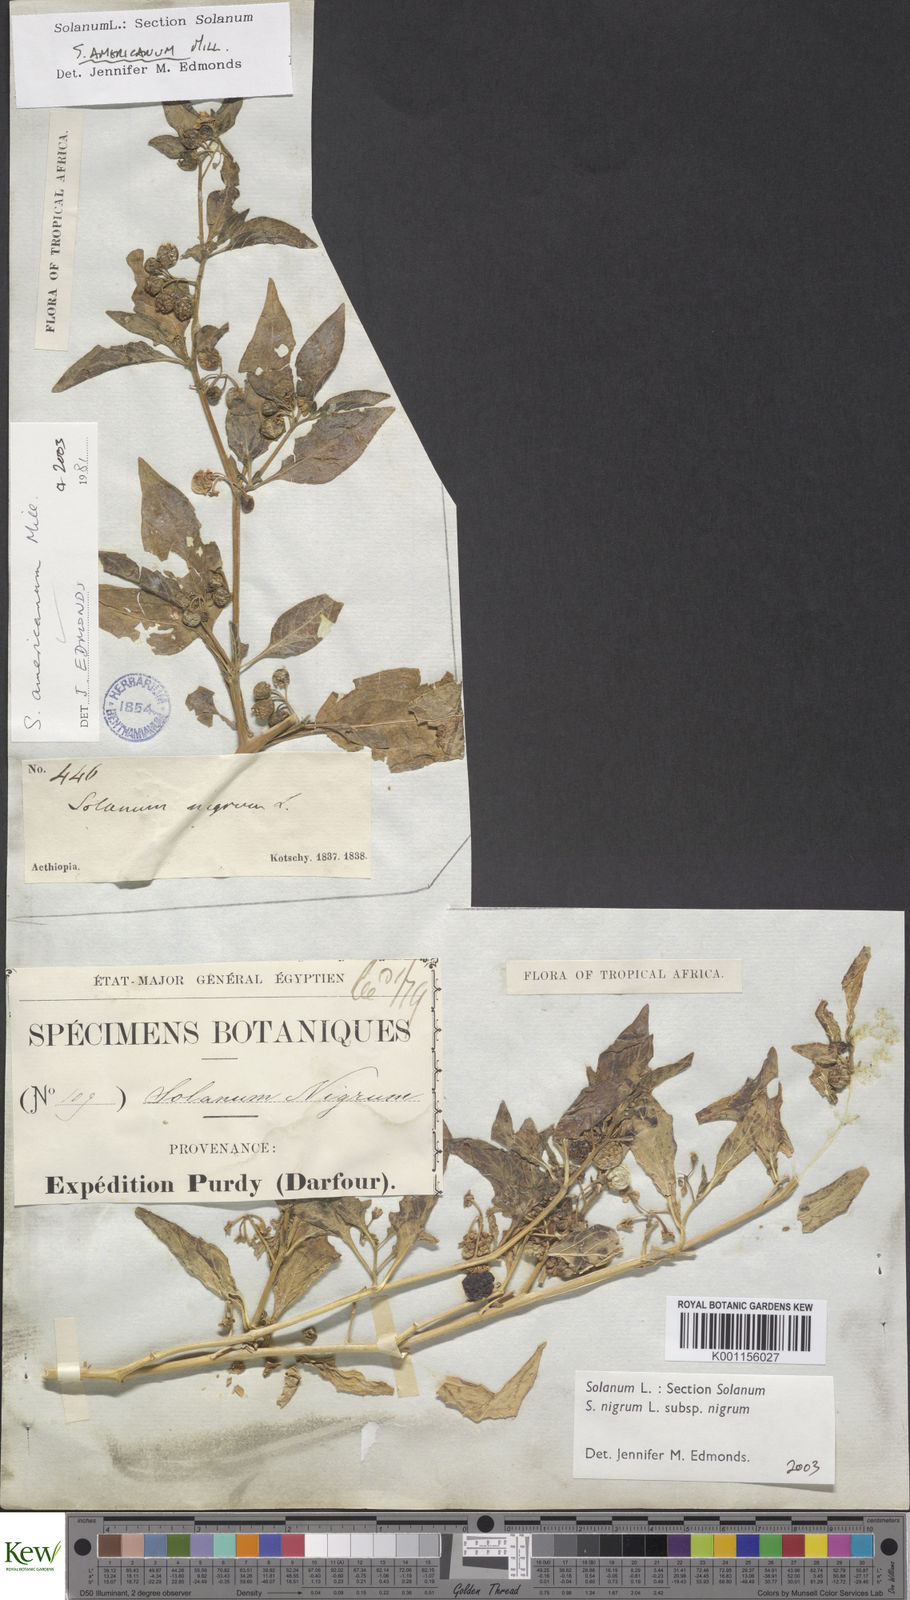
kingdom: Plantae
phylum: Tracheophyta
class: Magnoliopsida
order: Solanales
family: Solanaceae
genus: Solanum
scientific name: Solanum villosum
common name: Red nightshade
